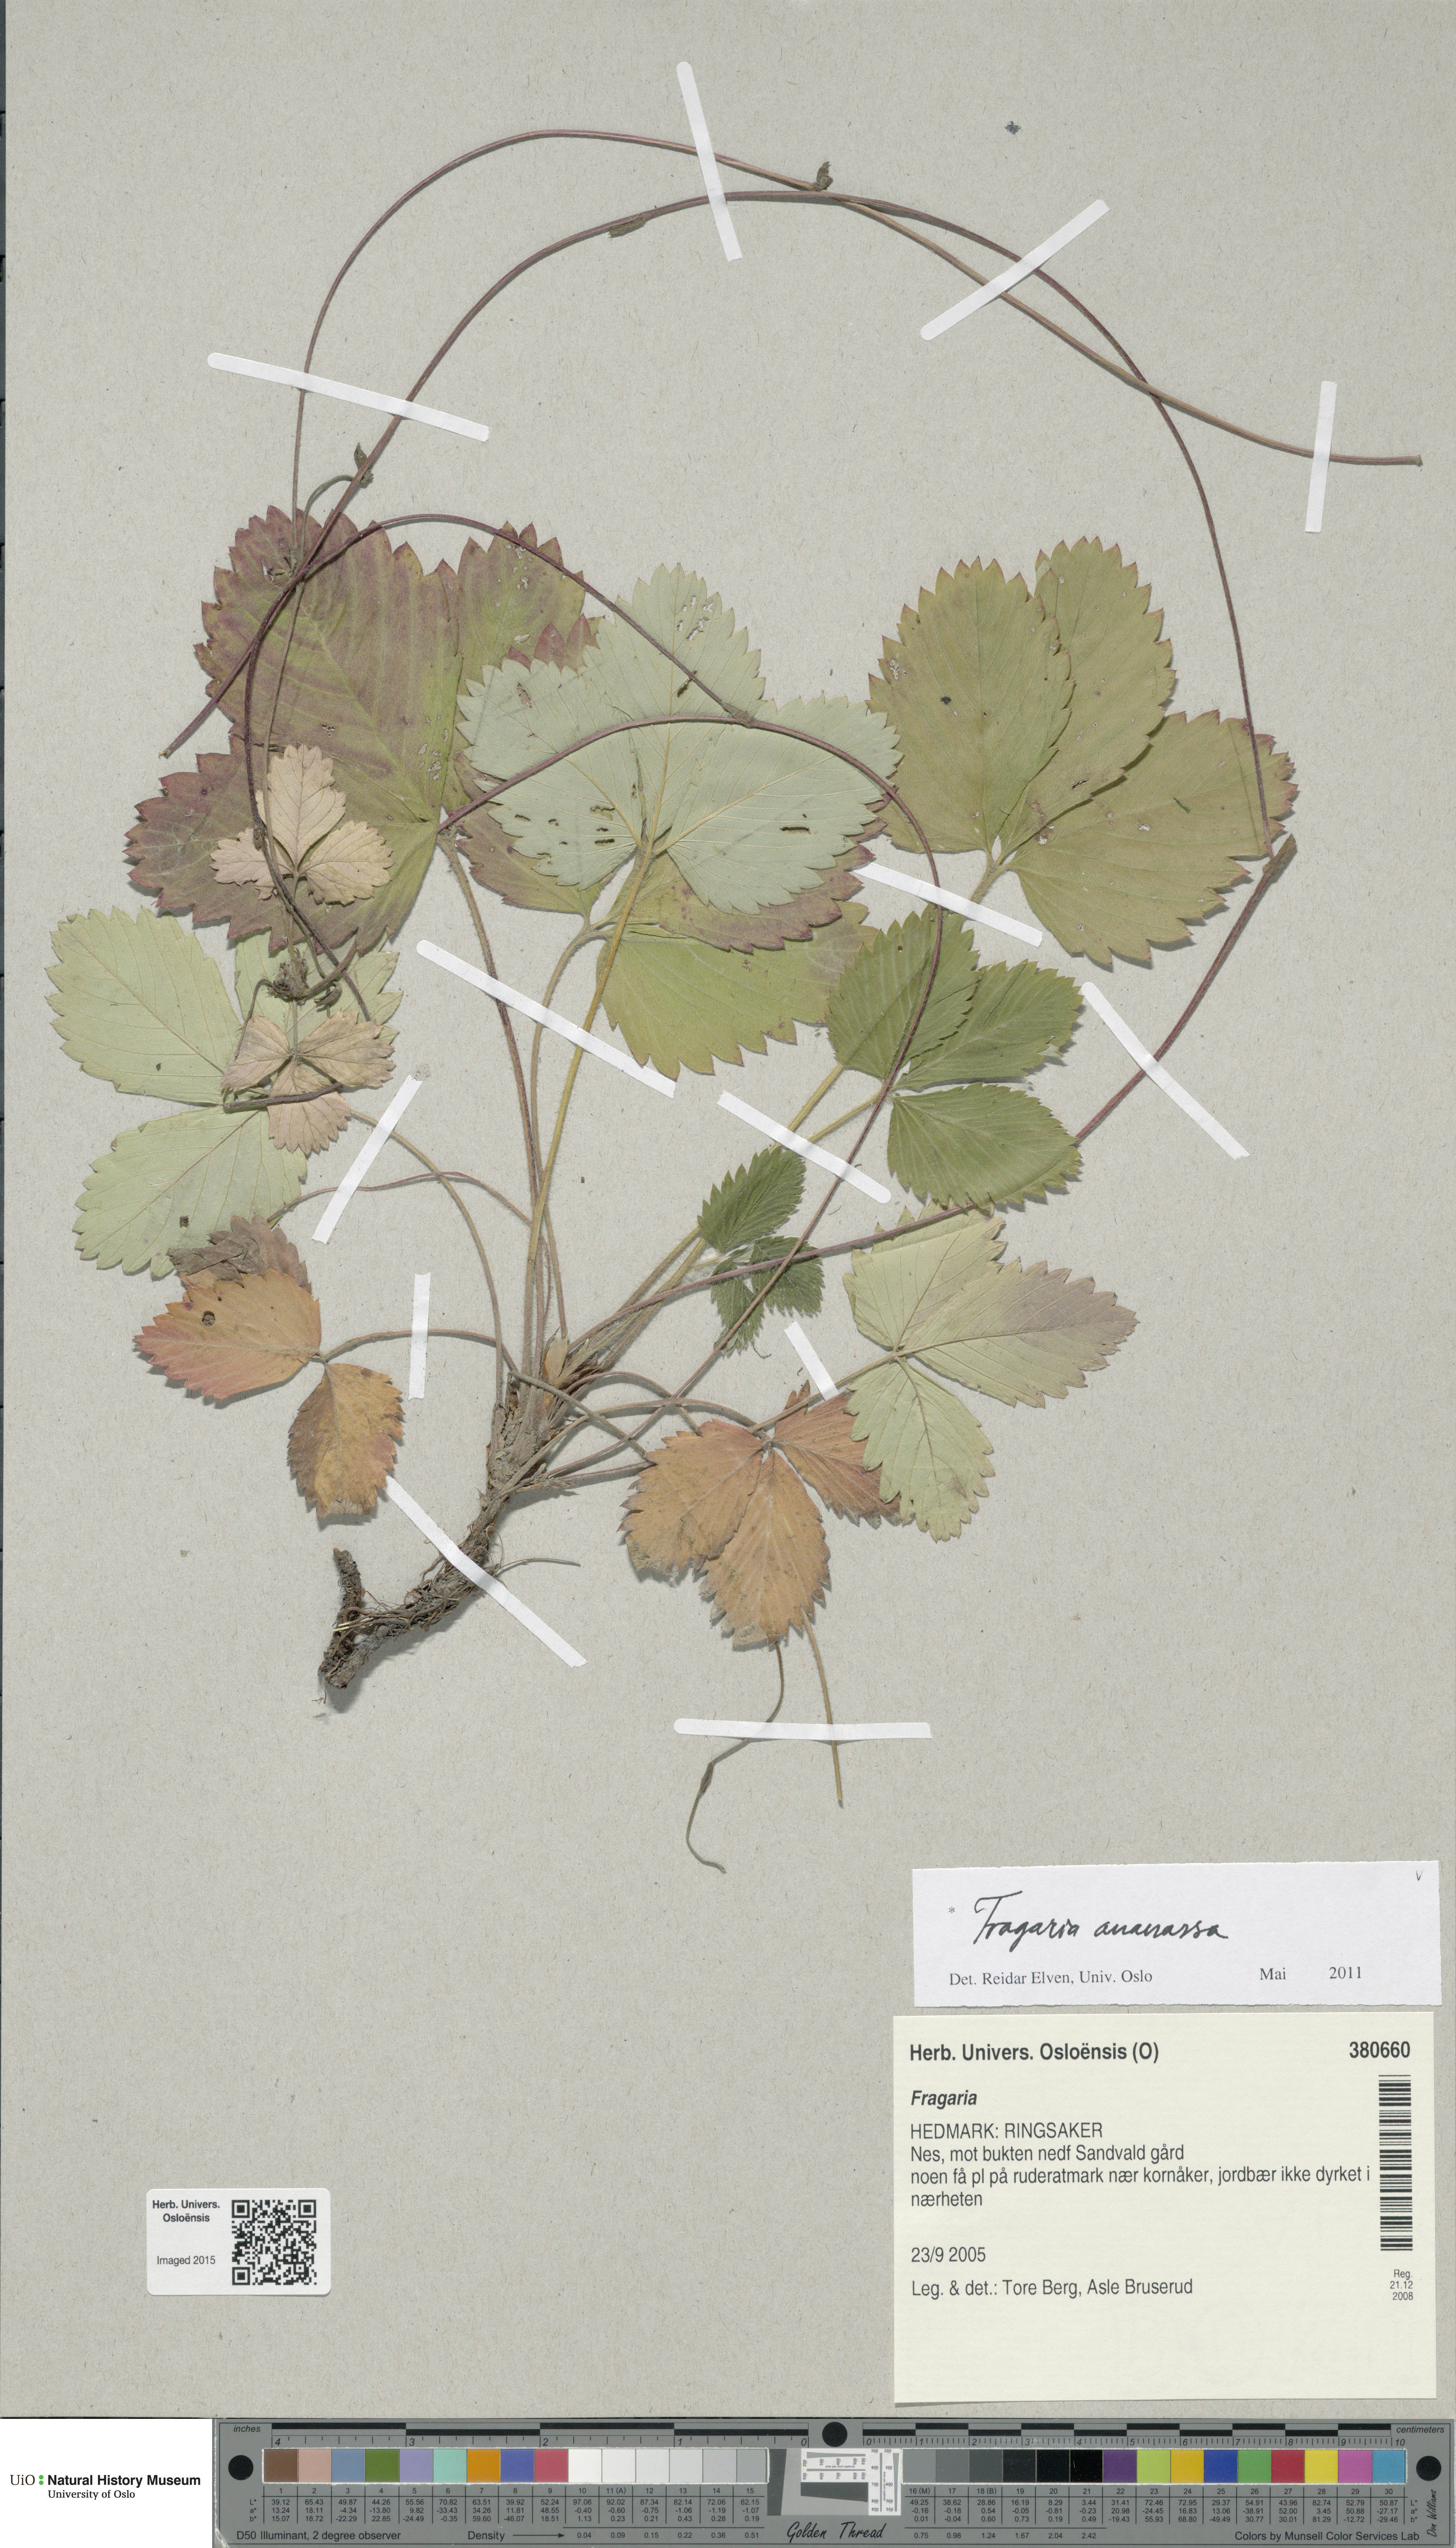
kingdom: Plantae
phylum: Tracheophyta
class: Magnoliopsida
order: Rosales
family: Rosaceae
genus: Fragaria
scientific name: Fragaria ananassa
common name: Garden strawberry
